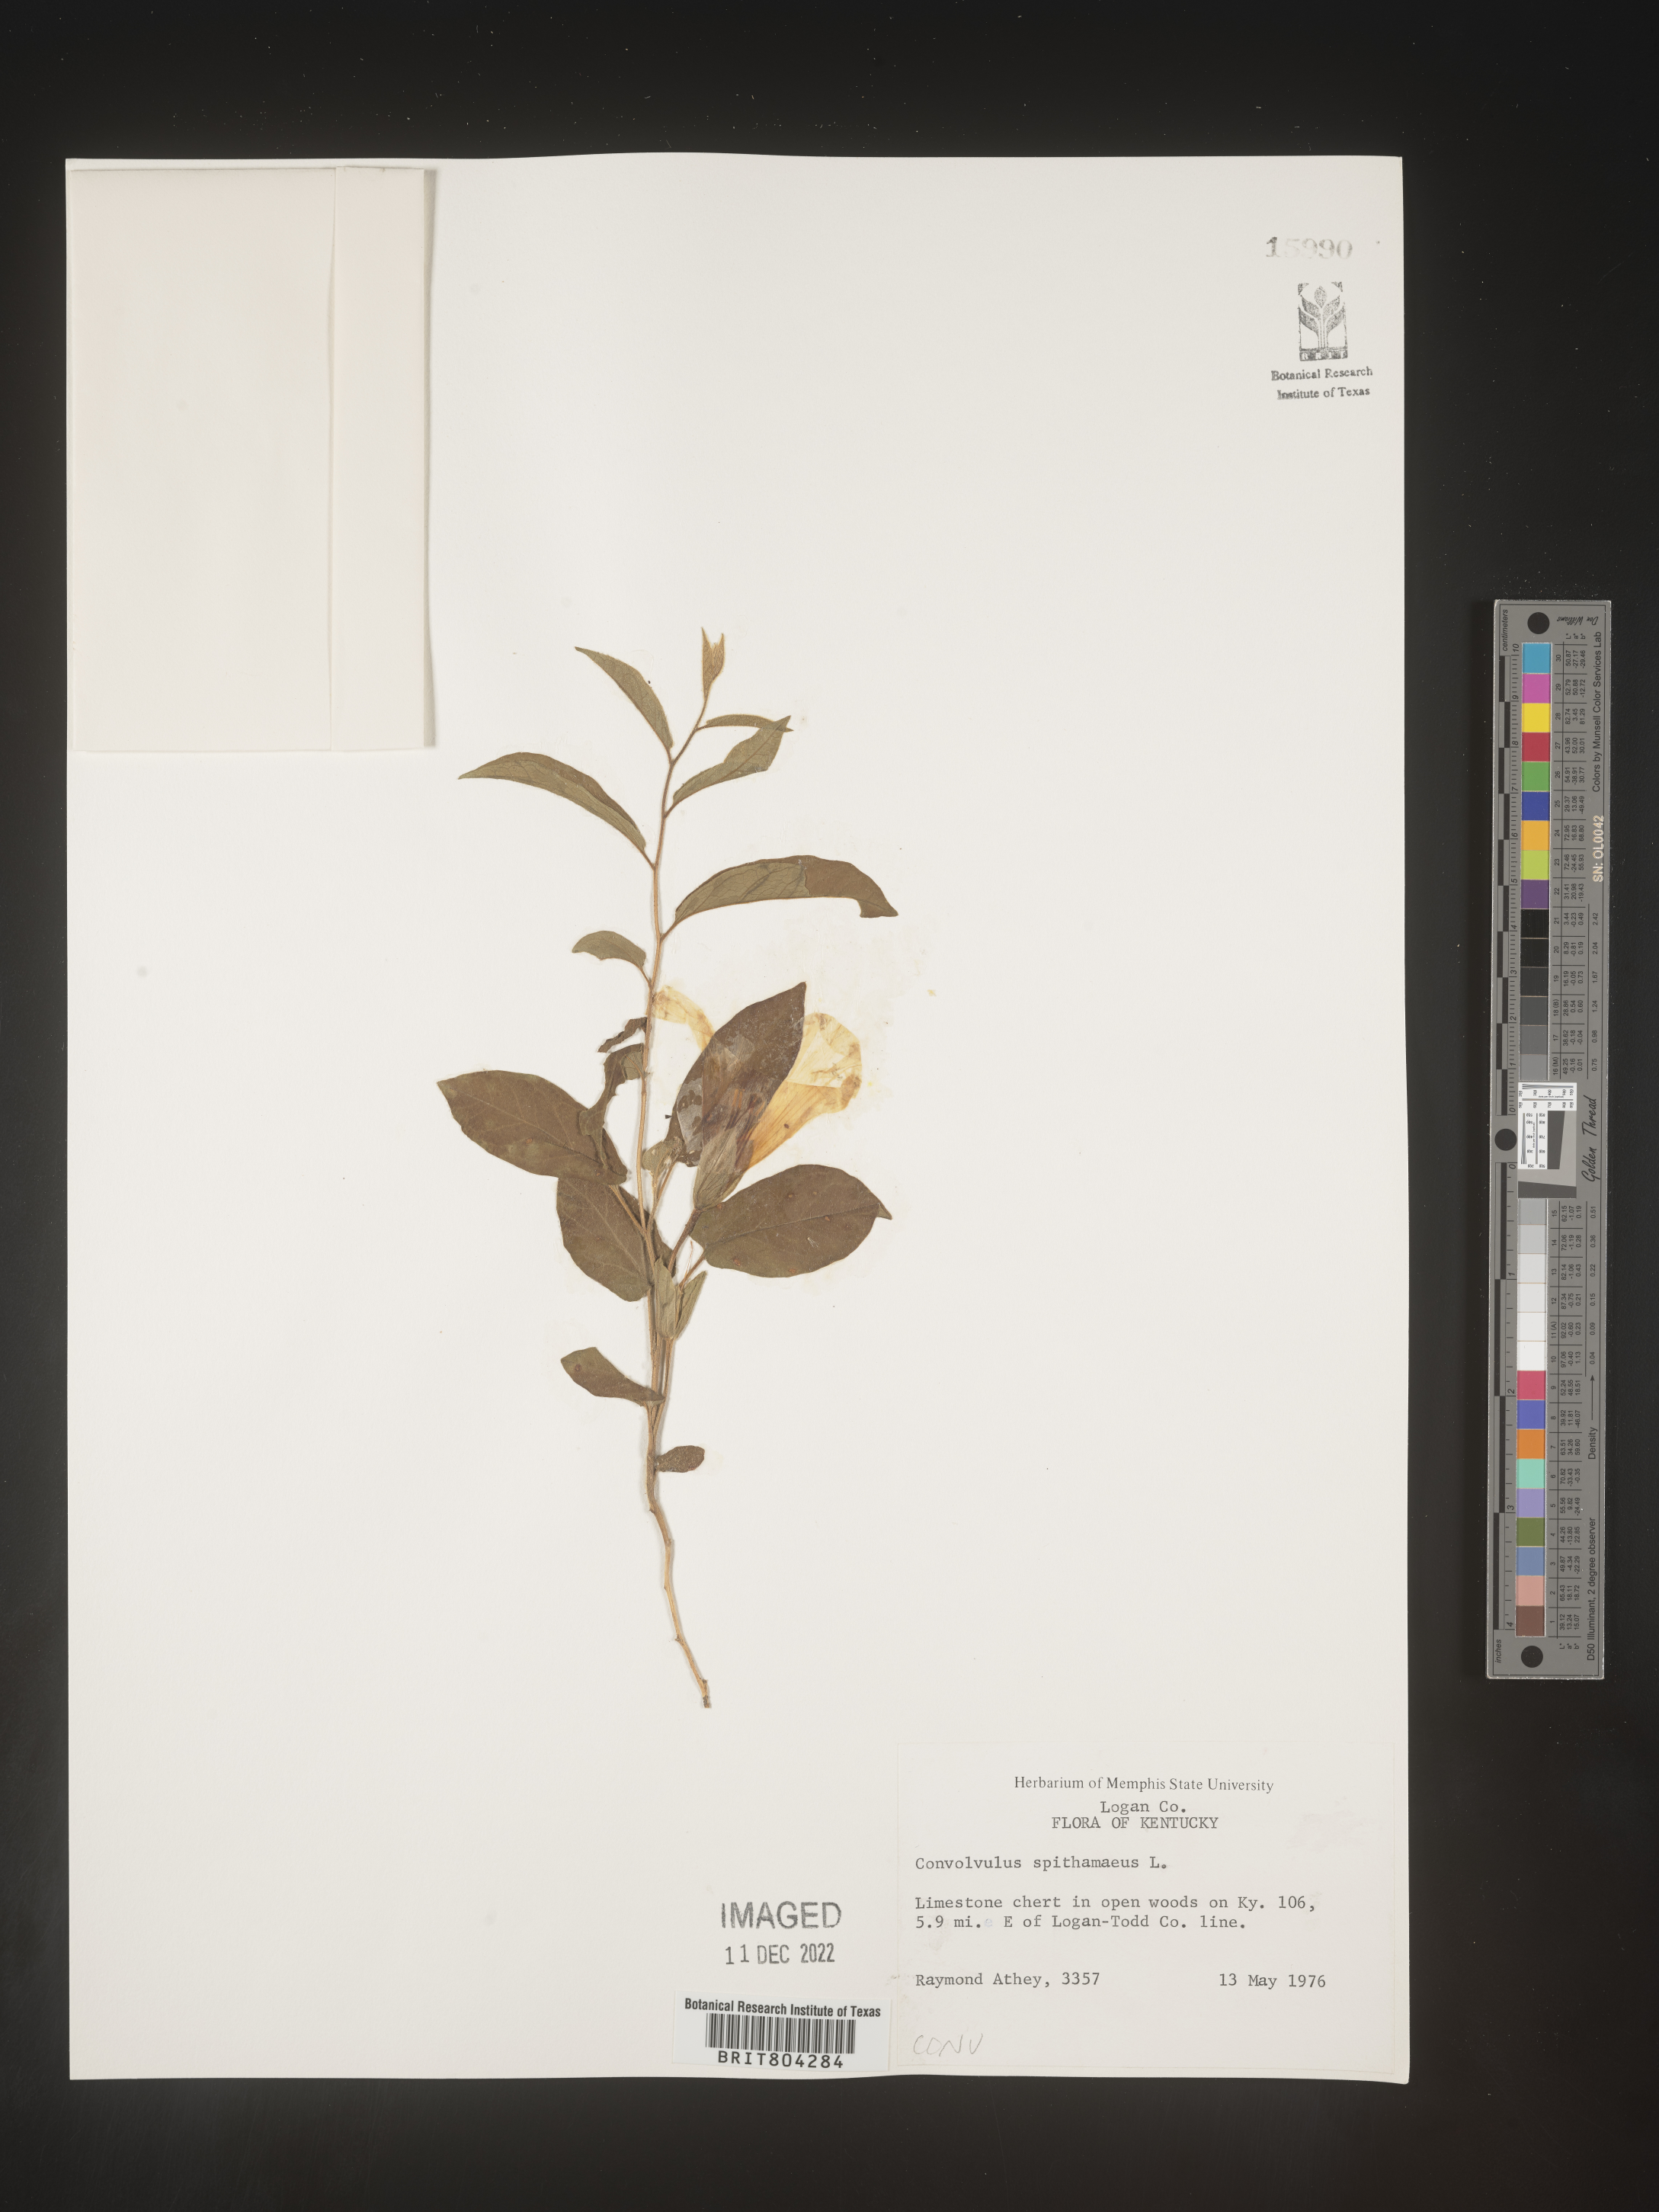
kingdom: Plantae
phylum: Tracheophyta
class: Magnoliopsida
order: Solanales
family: Convolvulaceae
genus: Calystegia
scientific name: Calystegia
